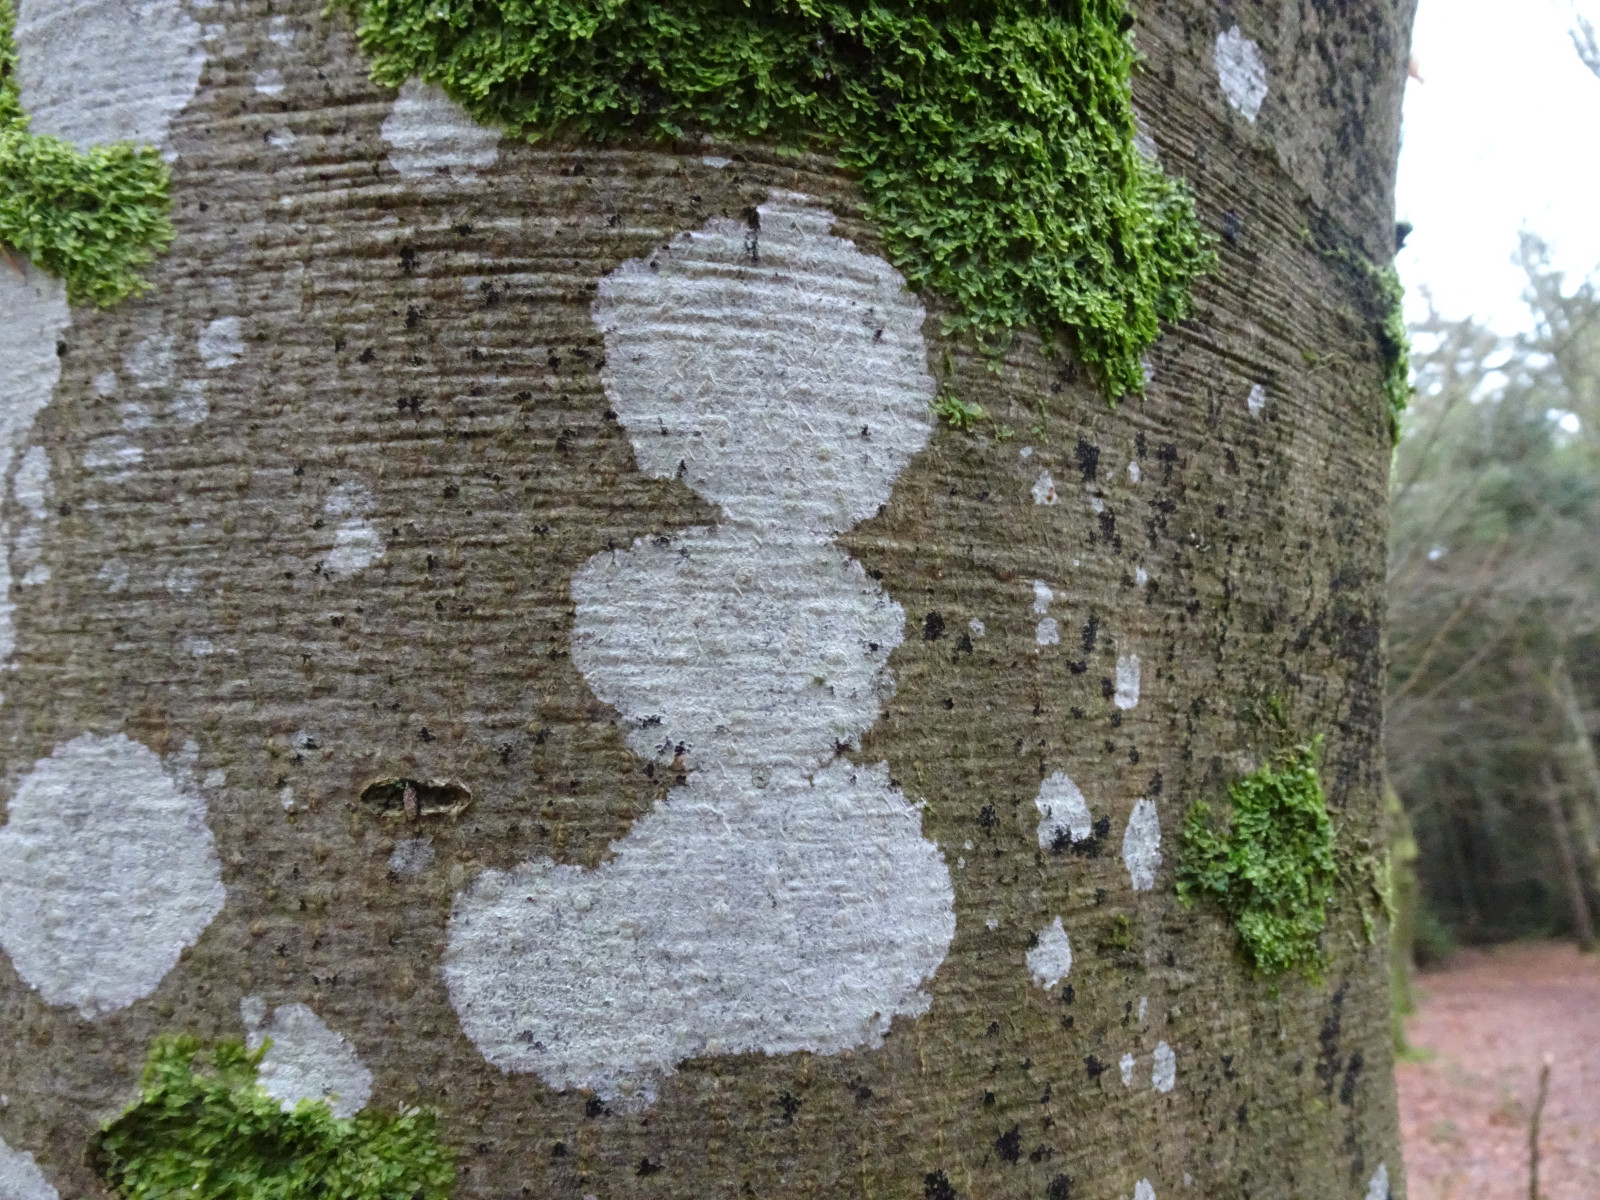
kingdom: Fungi
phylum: Ascomycota
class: Lecanoromycetes
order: Ostropales
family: Phlyctidaceae
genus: Phlyctis
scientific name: Phlyctis argena
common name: almindelig sølvlav
